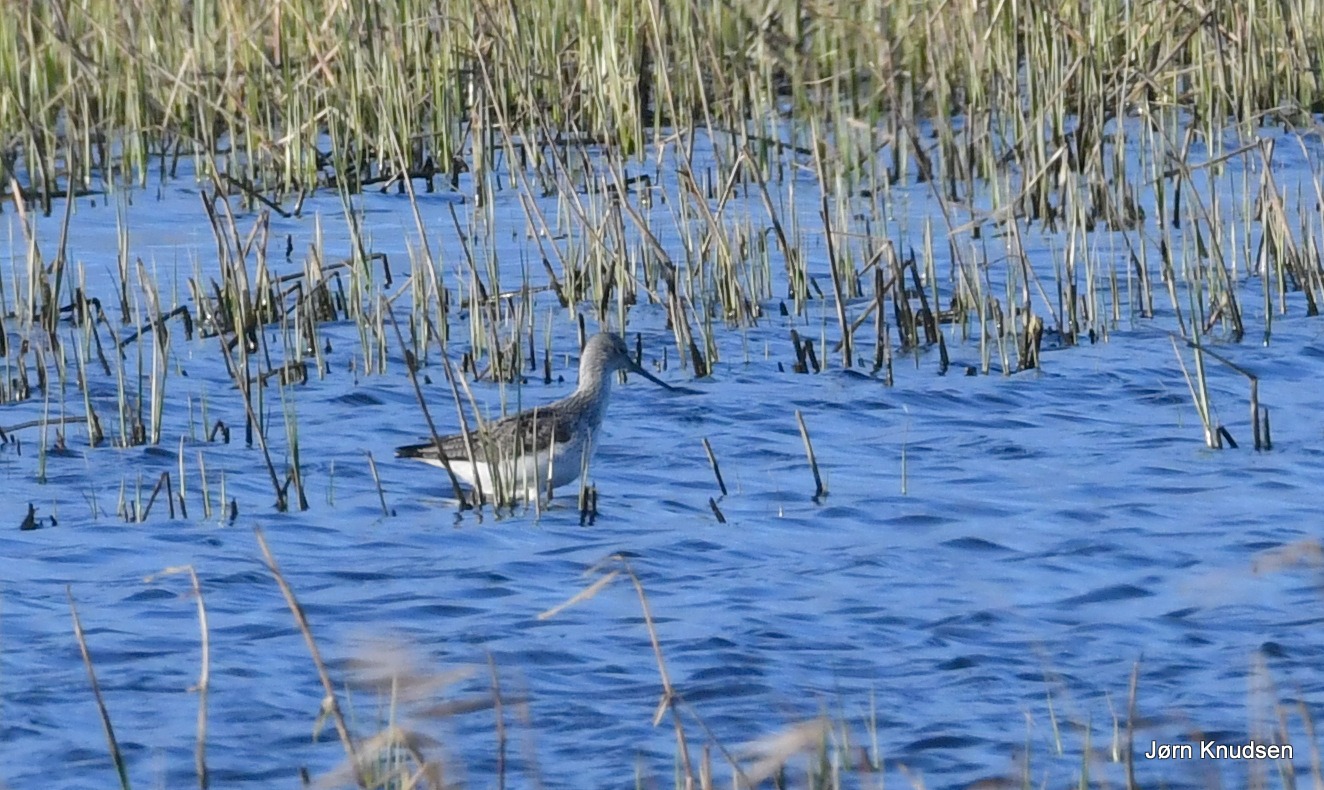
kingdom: Animalia
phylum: Chordata
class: Aves
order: Charadriiformes
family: Scolopacidae
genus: Tringa
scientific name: Tringa nebularia
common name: Hvidklire
